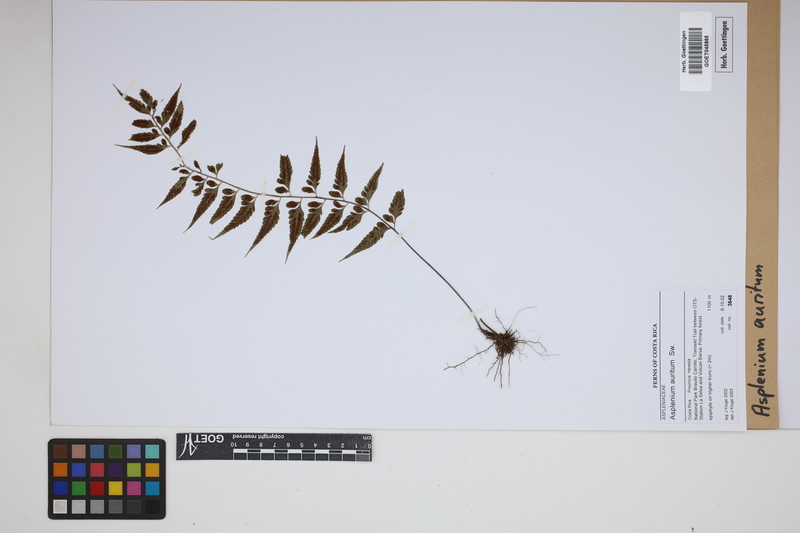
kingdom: Plantae
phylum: Tracheophyta
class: Polypodiopsida
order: Polypodiales
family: Aspleniaceae
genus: Asplenium
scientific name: Asplenium auritum
